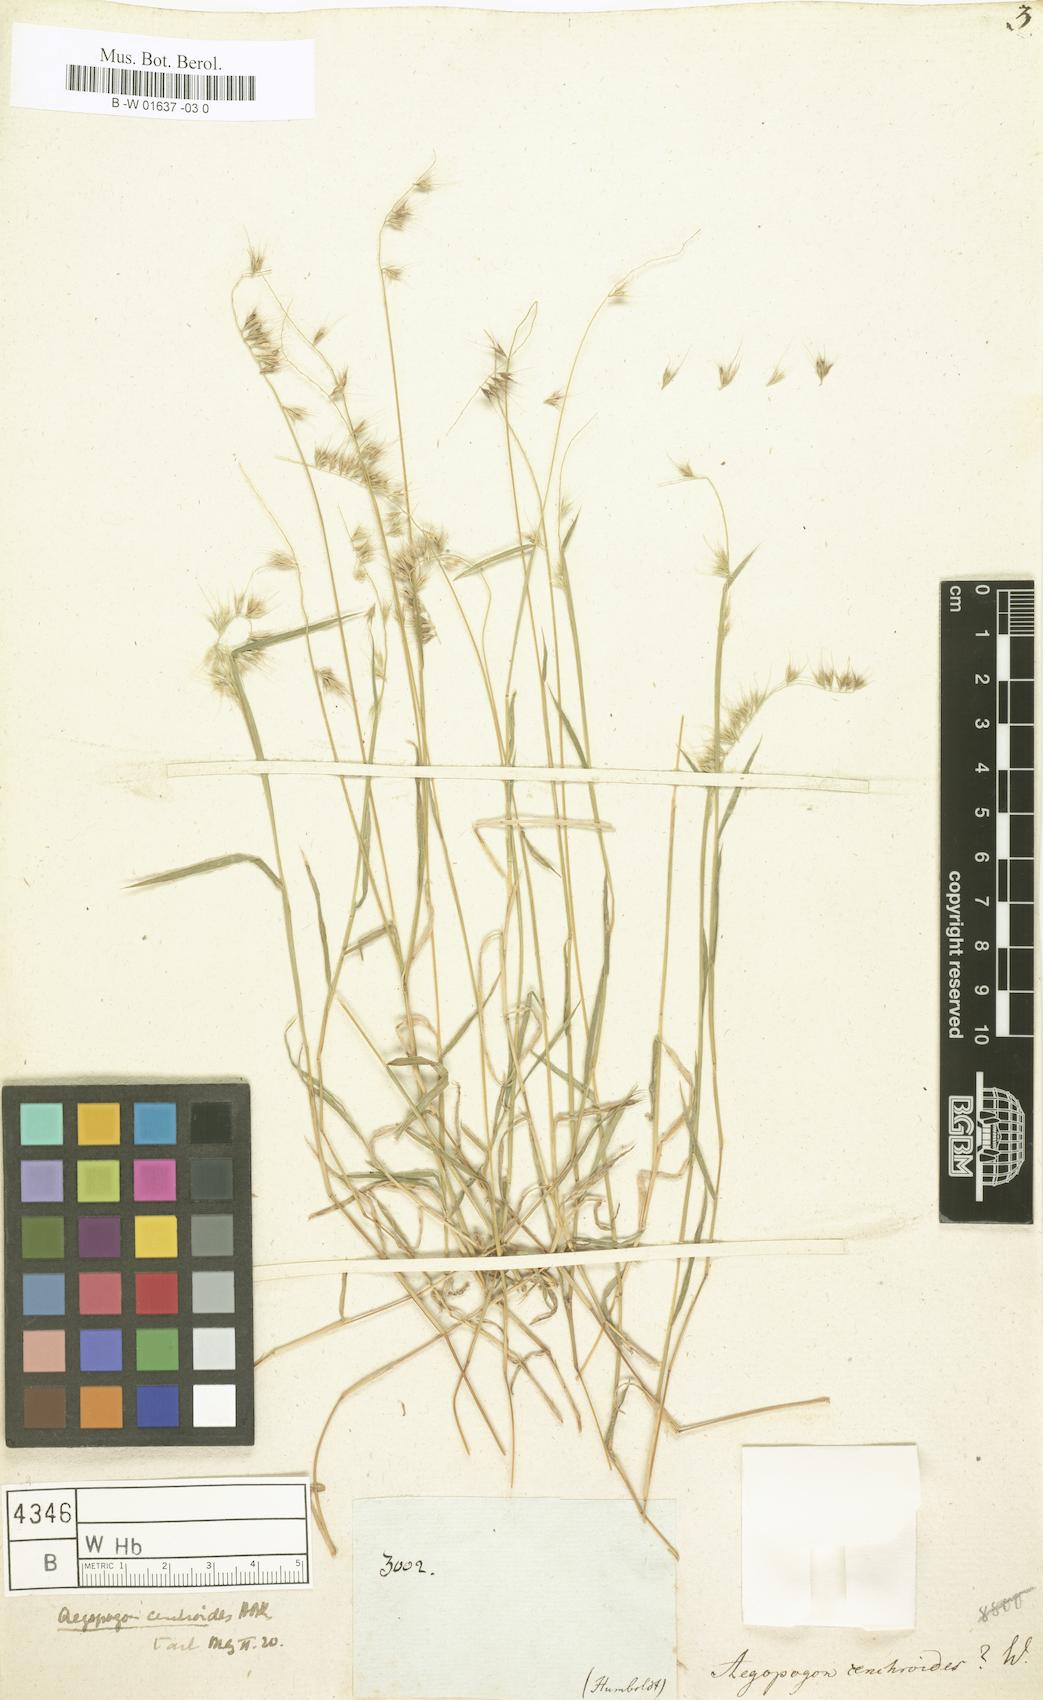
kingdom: Plantae
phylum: Tracheophyta
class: Liliopsida
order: Poales
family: Poaceae
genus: Muhlenbergia
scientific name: Muhlenbergia cenchroides
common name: Relaxgrass
